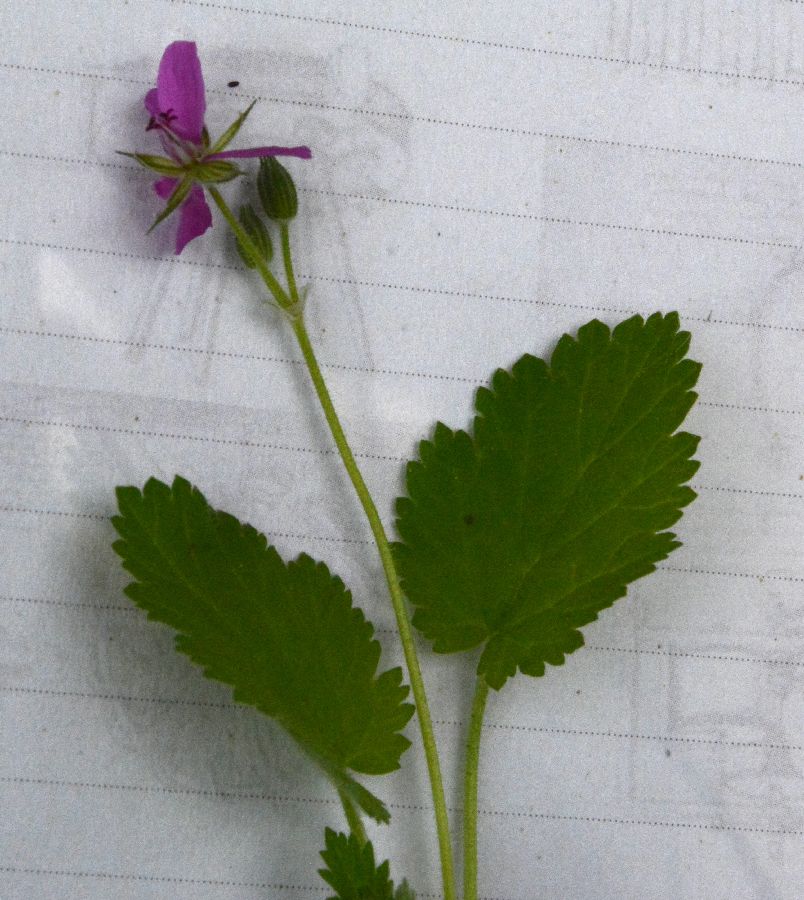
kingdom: Plantae
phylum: Tracheophyta
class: Magnoliopsida
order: Geraniales
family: Geraniaceae
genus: Erodium
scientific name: Erodium malacoides
